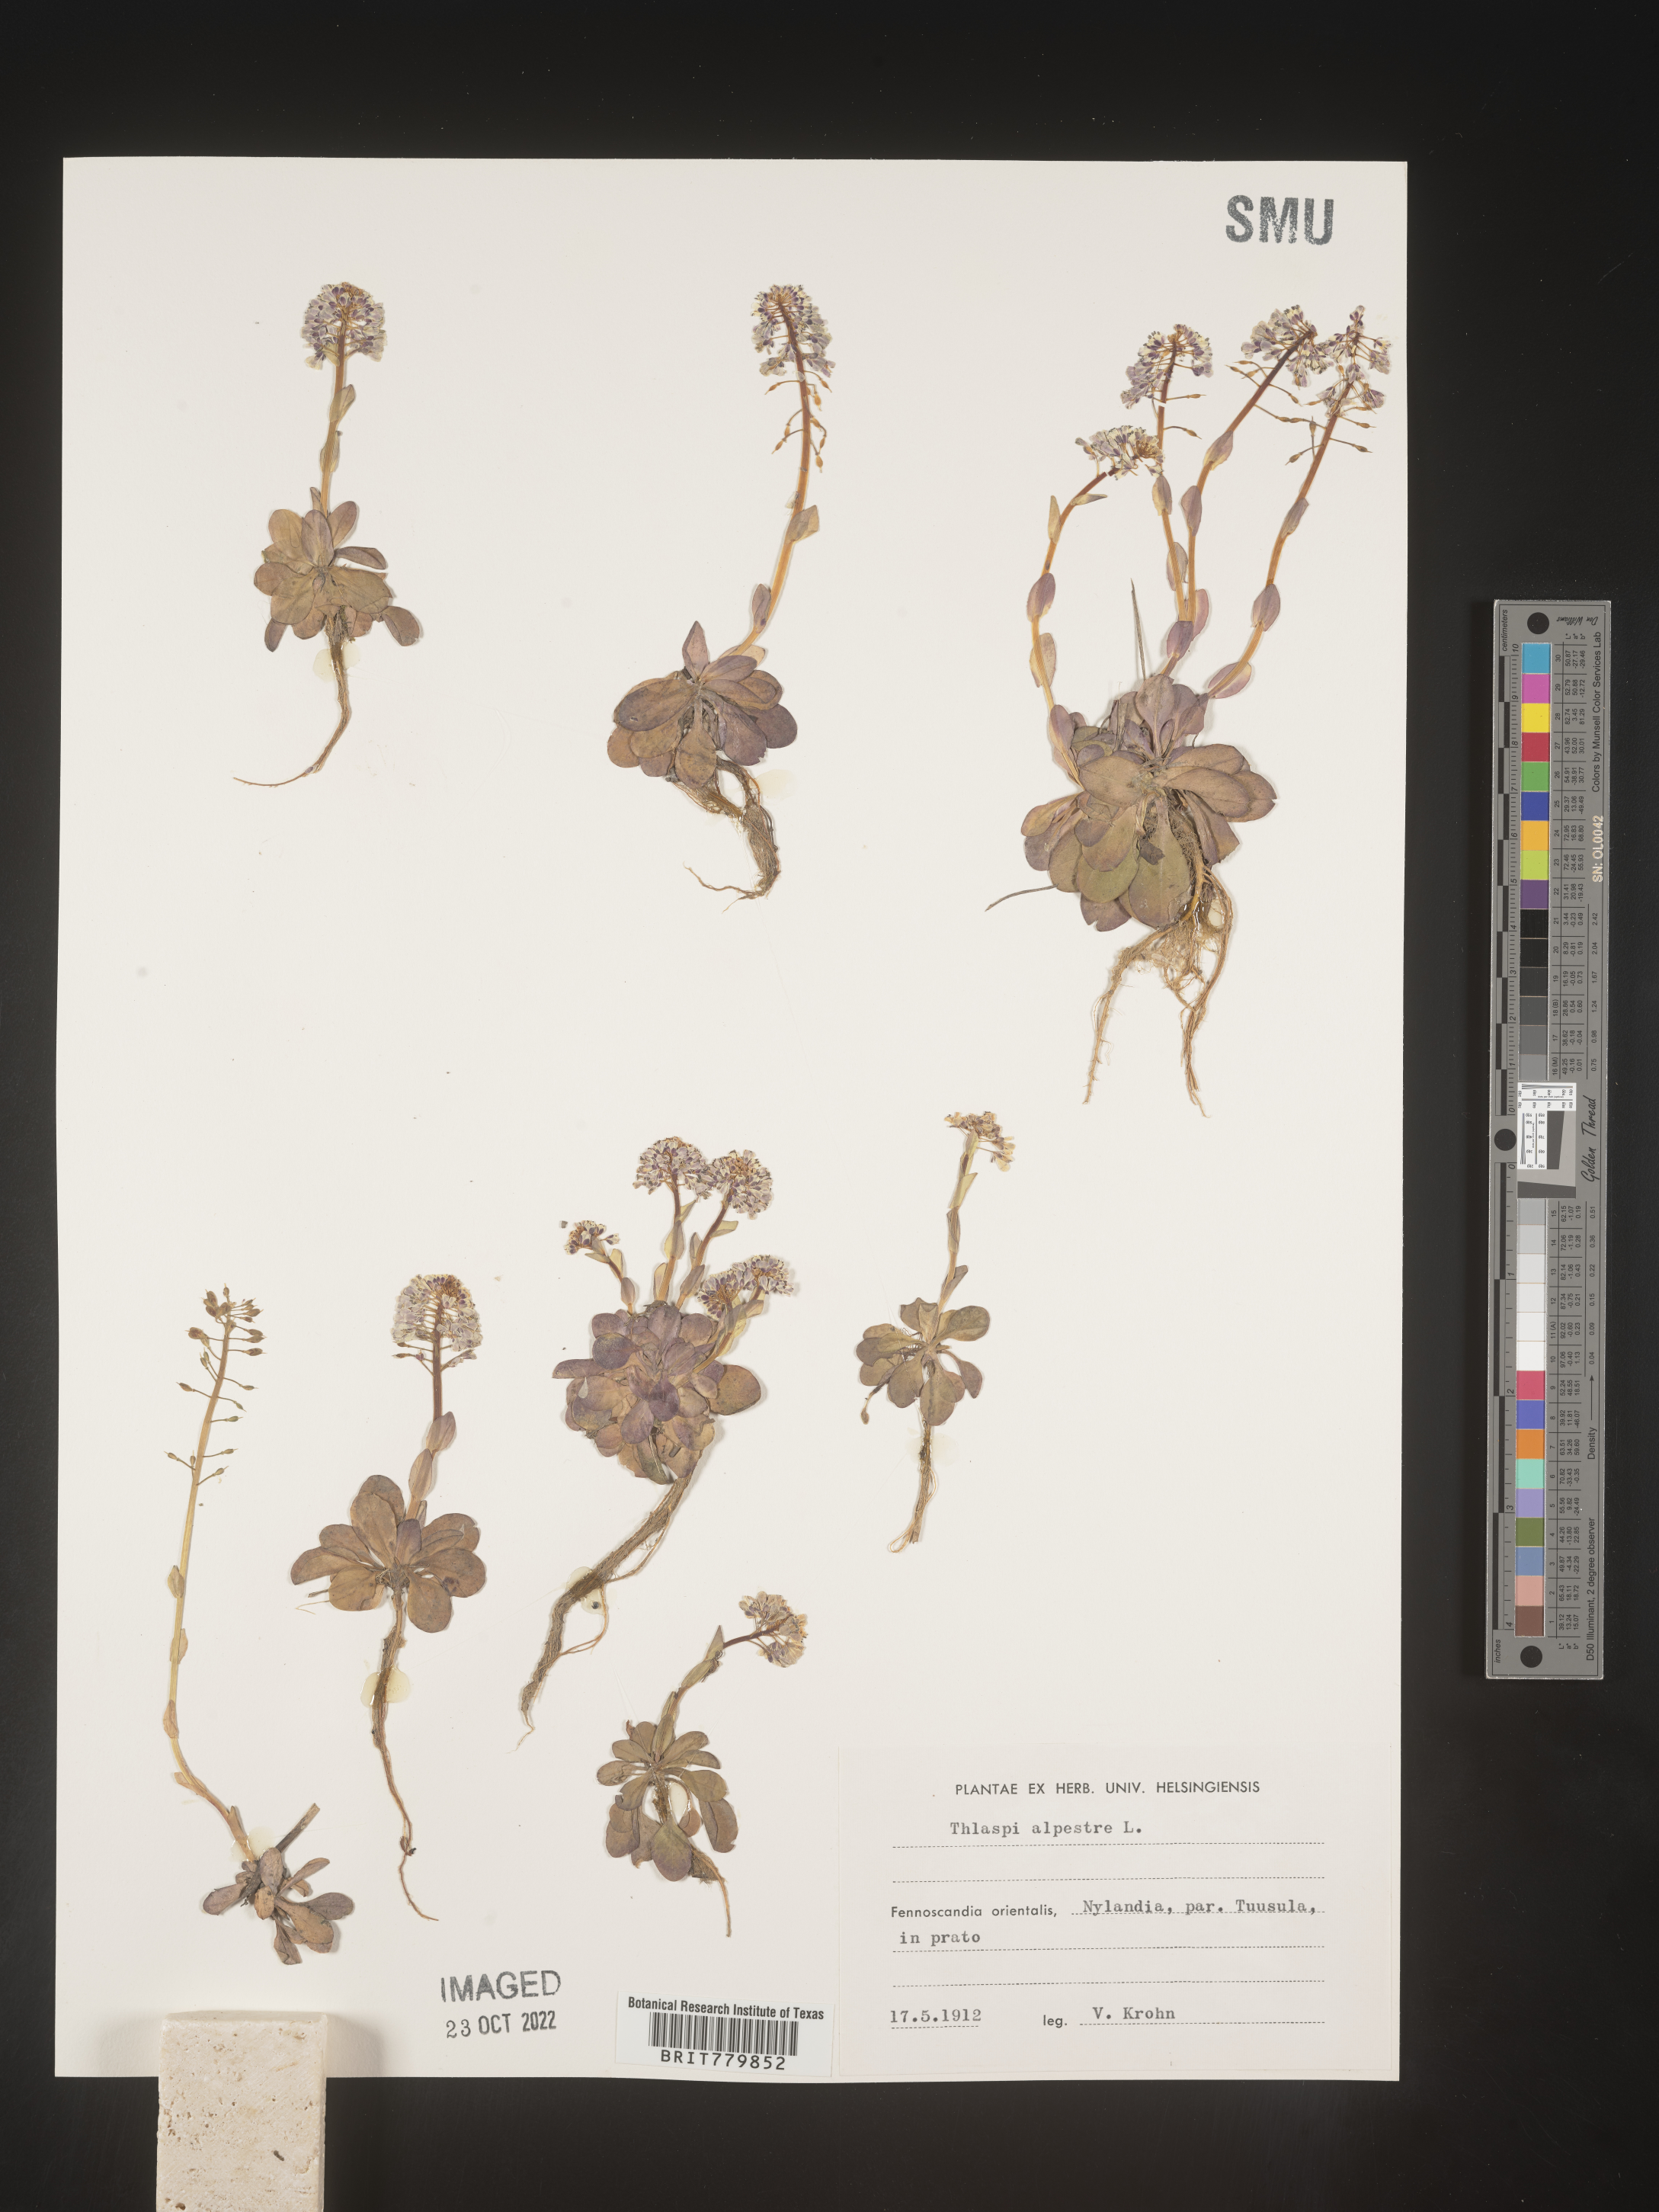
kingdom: Plantae
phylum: Tracheophyta
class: Magnoliopsida
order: Brassicales
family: Brassicaceae
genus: Thlaspi
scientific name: Thlaspi
